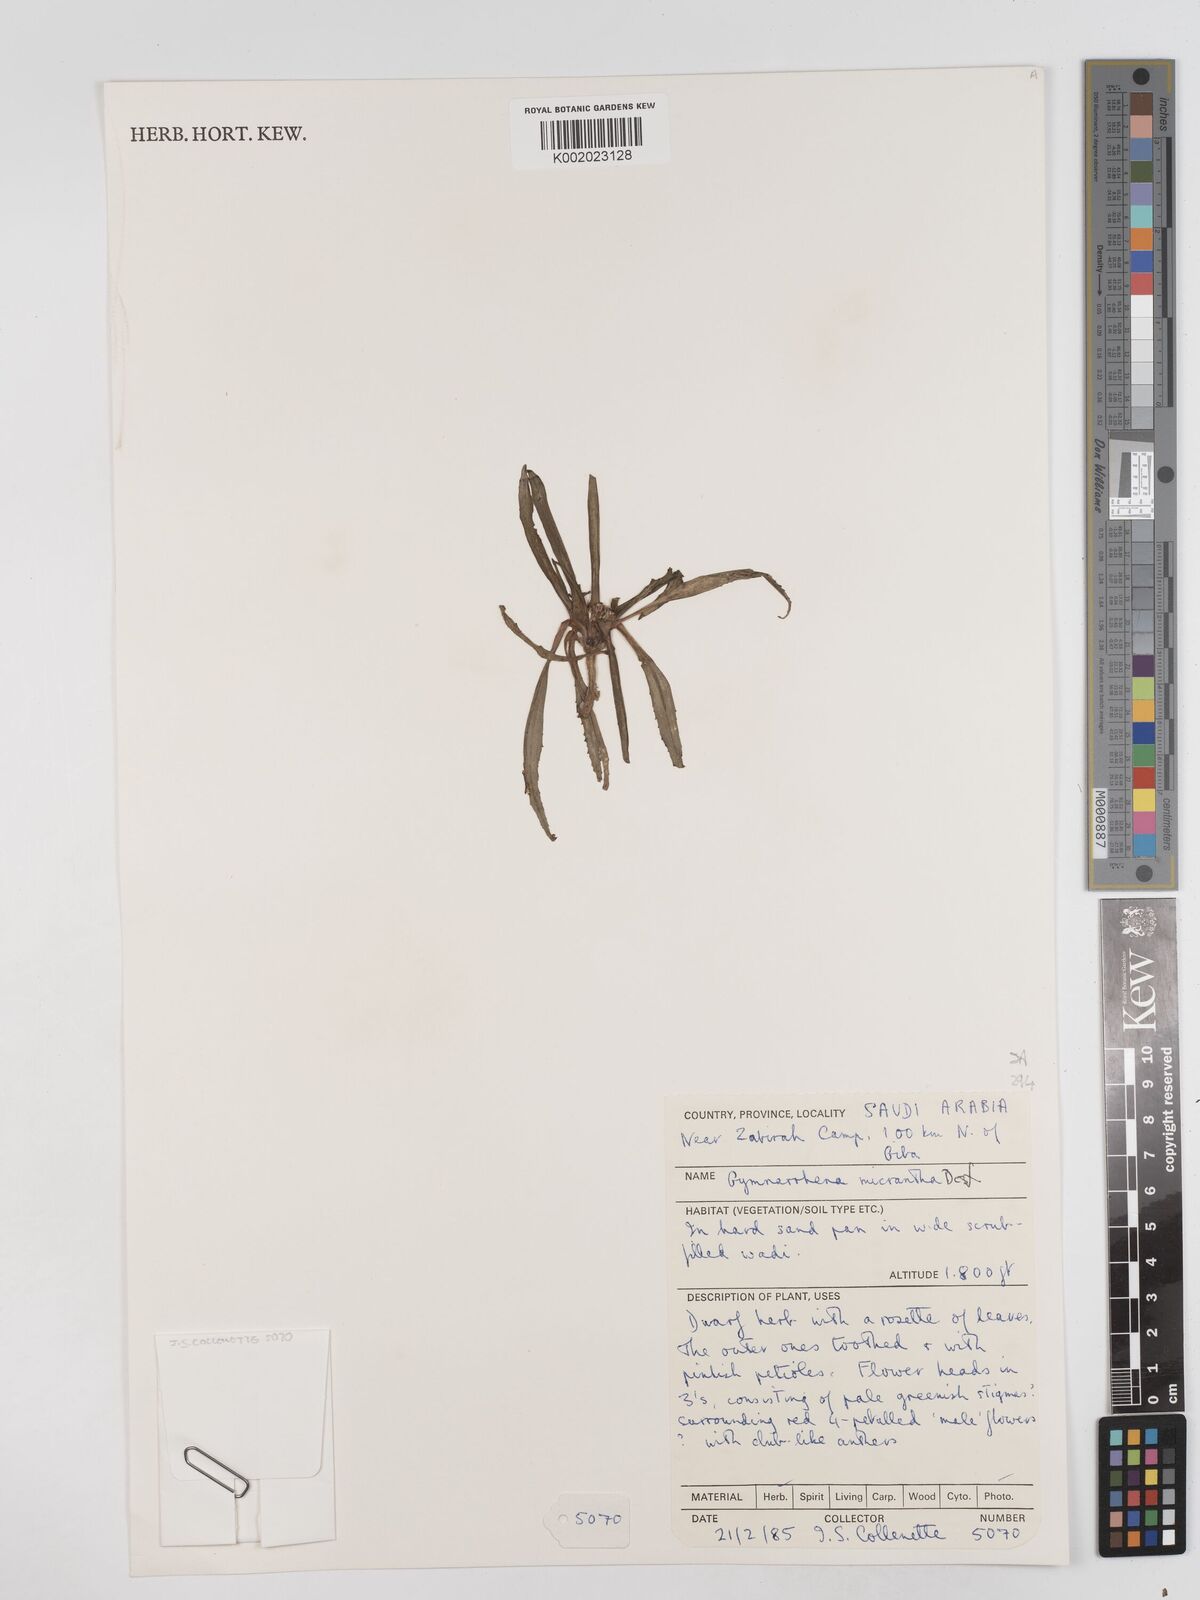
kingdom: Plantae
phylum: Tracheophyta
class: Magnoliopsida
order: Asterales
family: Asteraceae
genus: Gymnarrhena
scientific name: Gymnarrhena micrantha
